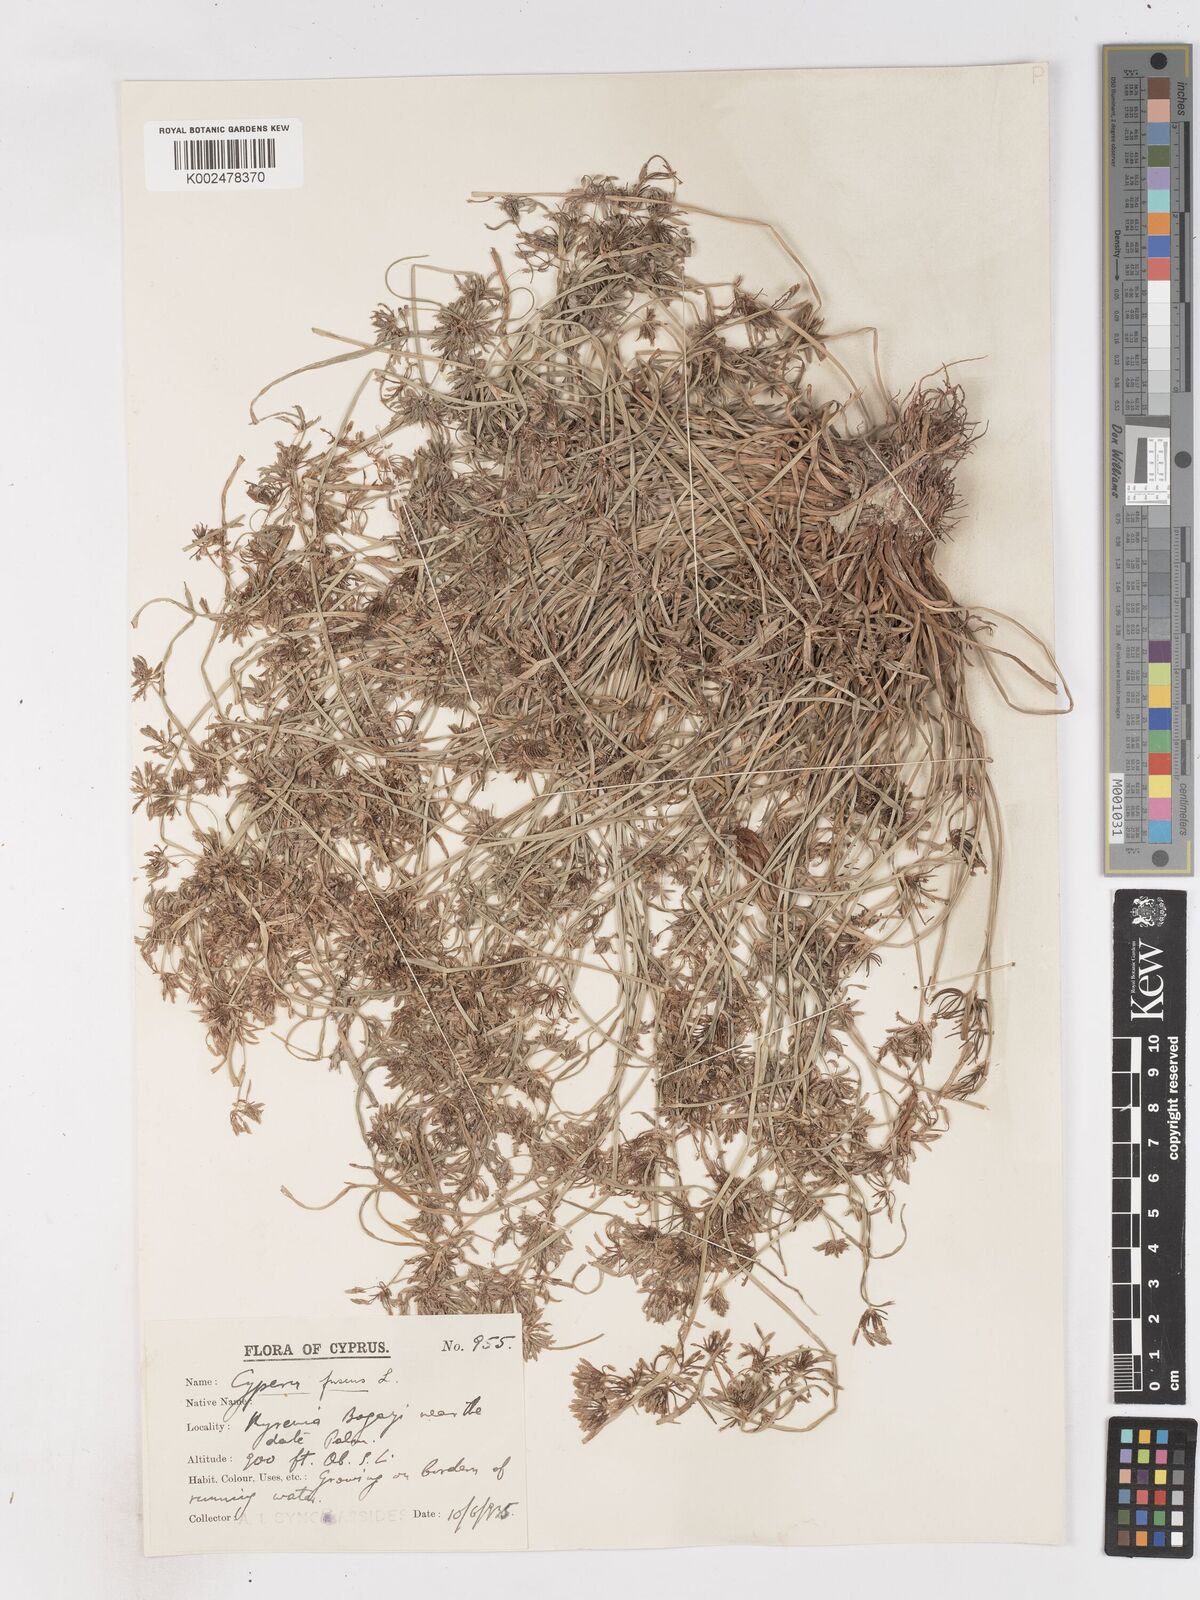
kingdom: Plantae
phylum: Tracheophyta
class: Liliopsida
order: Poales
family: Cyperaceae
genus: Cyperus
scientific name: Cyperus fuscus
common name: Brown galingale
